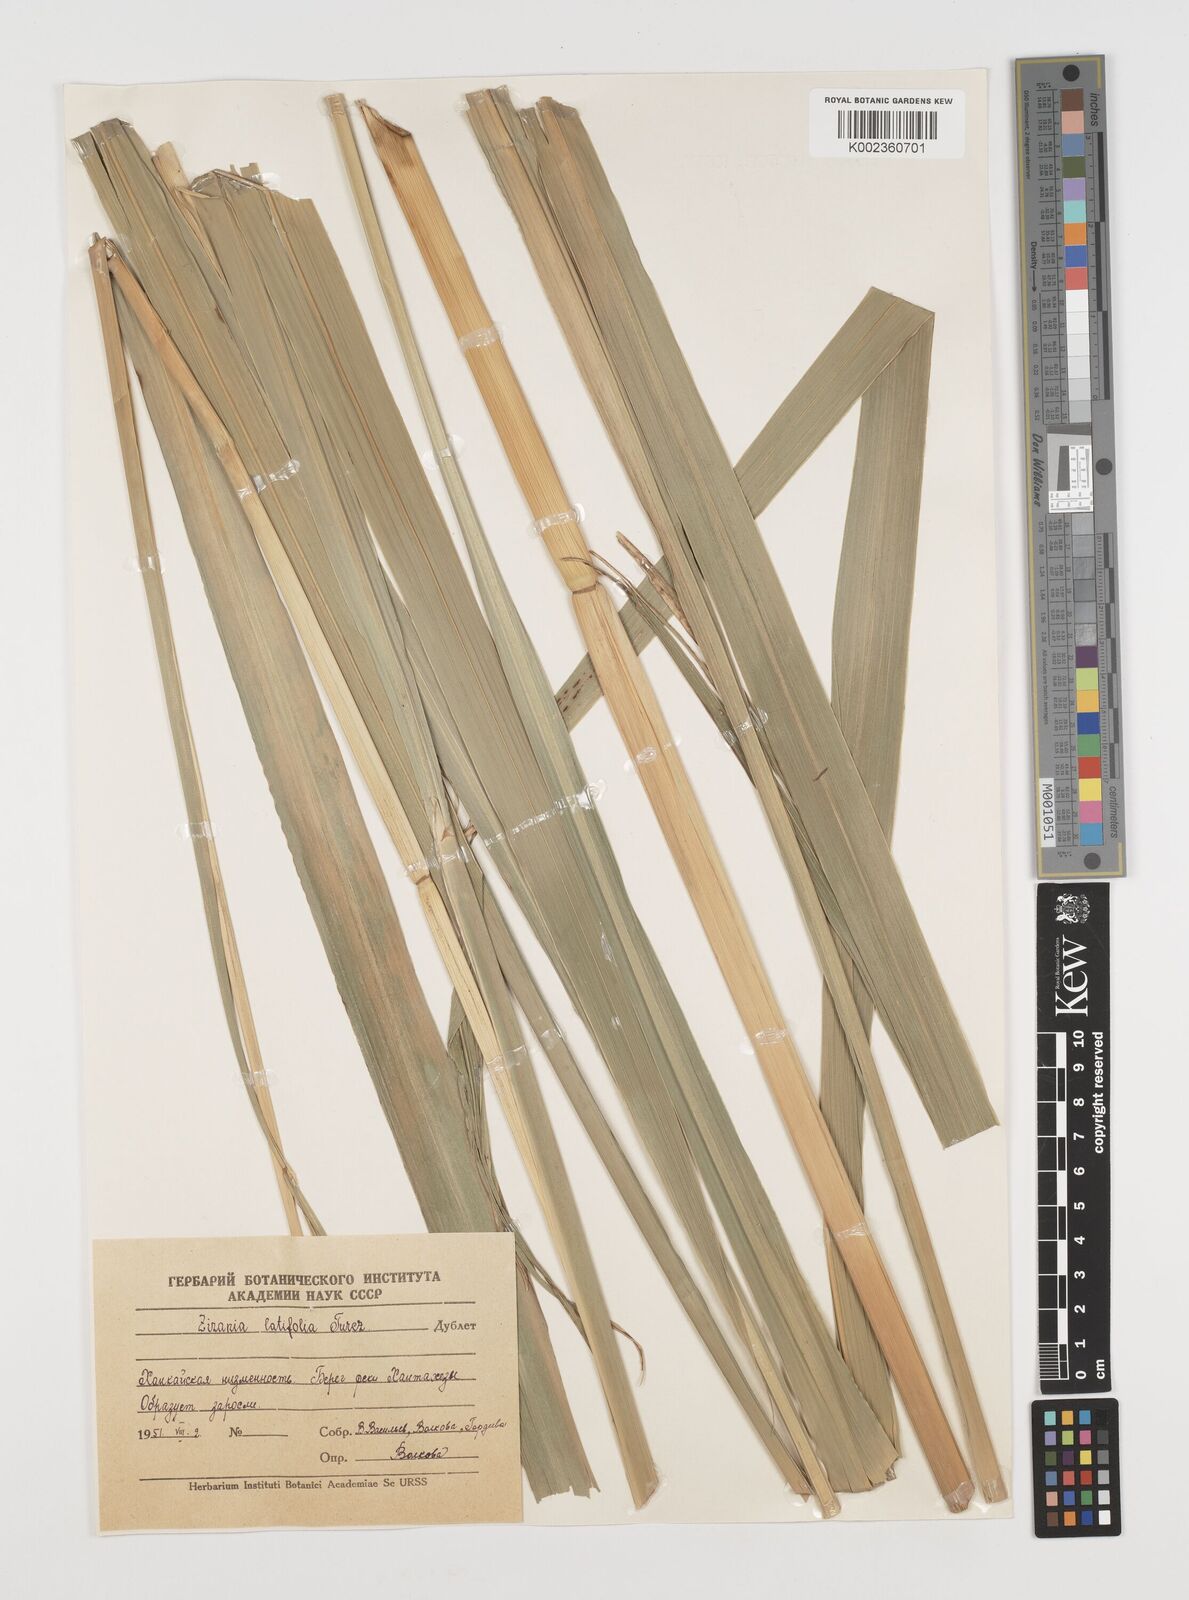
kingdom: Plantae
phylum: Tracheophyta
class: Liliopsida
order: Poales
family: Poaceae
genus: Zizania
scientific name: Zizania latifolia
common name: Manchurian wildrice
